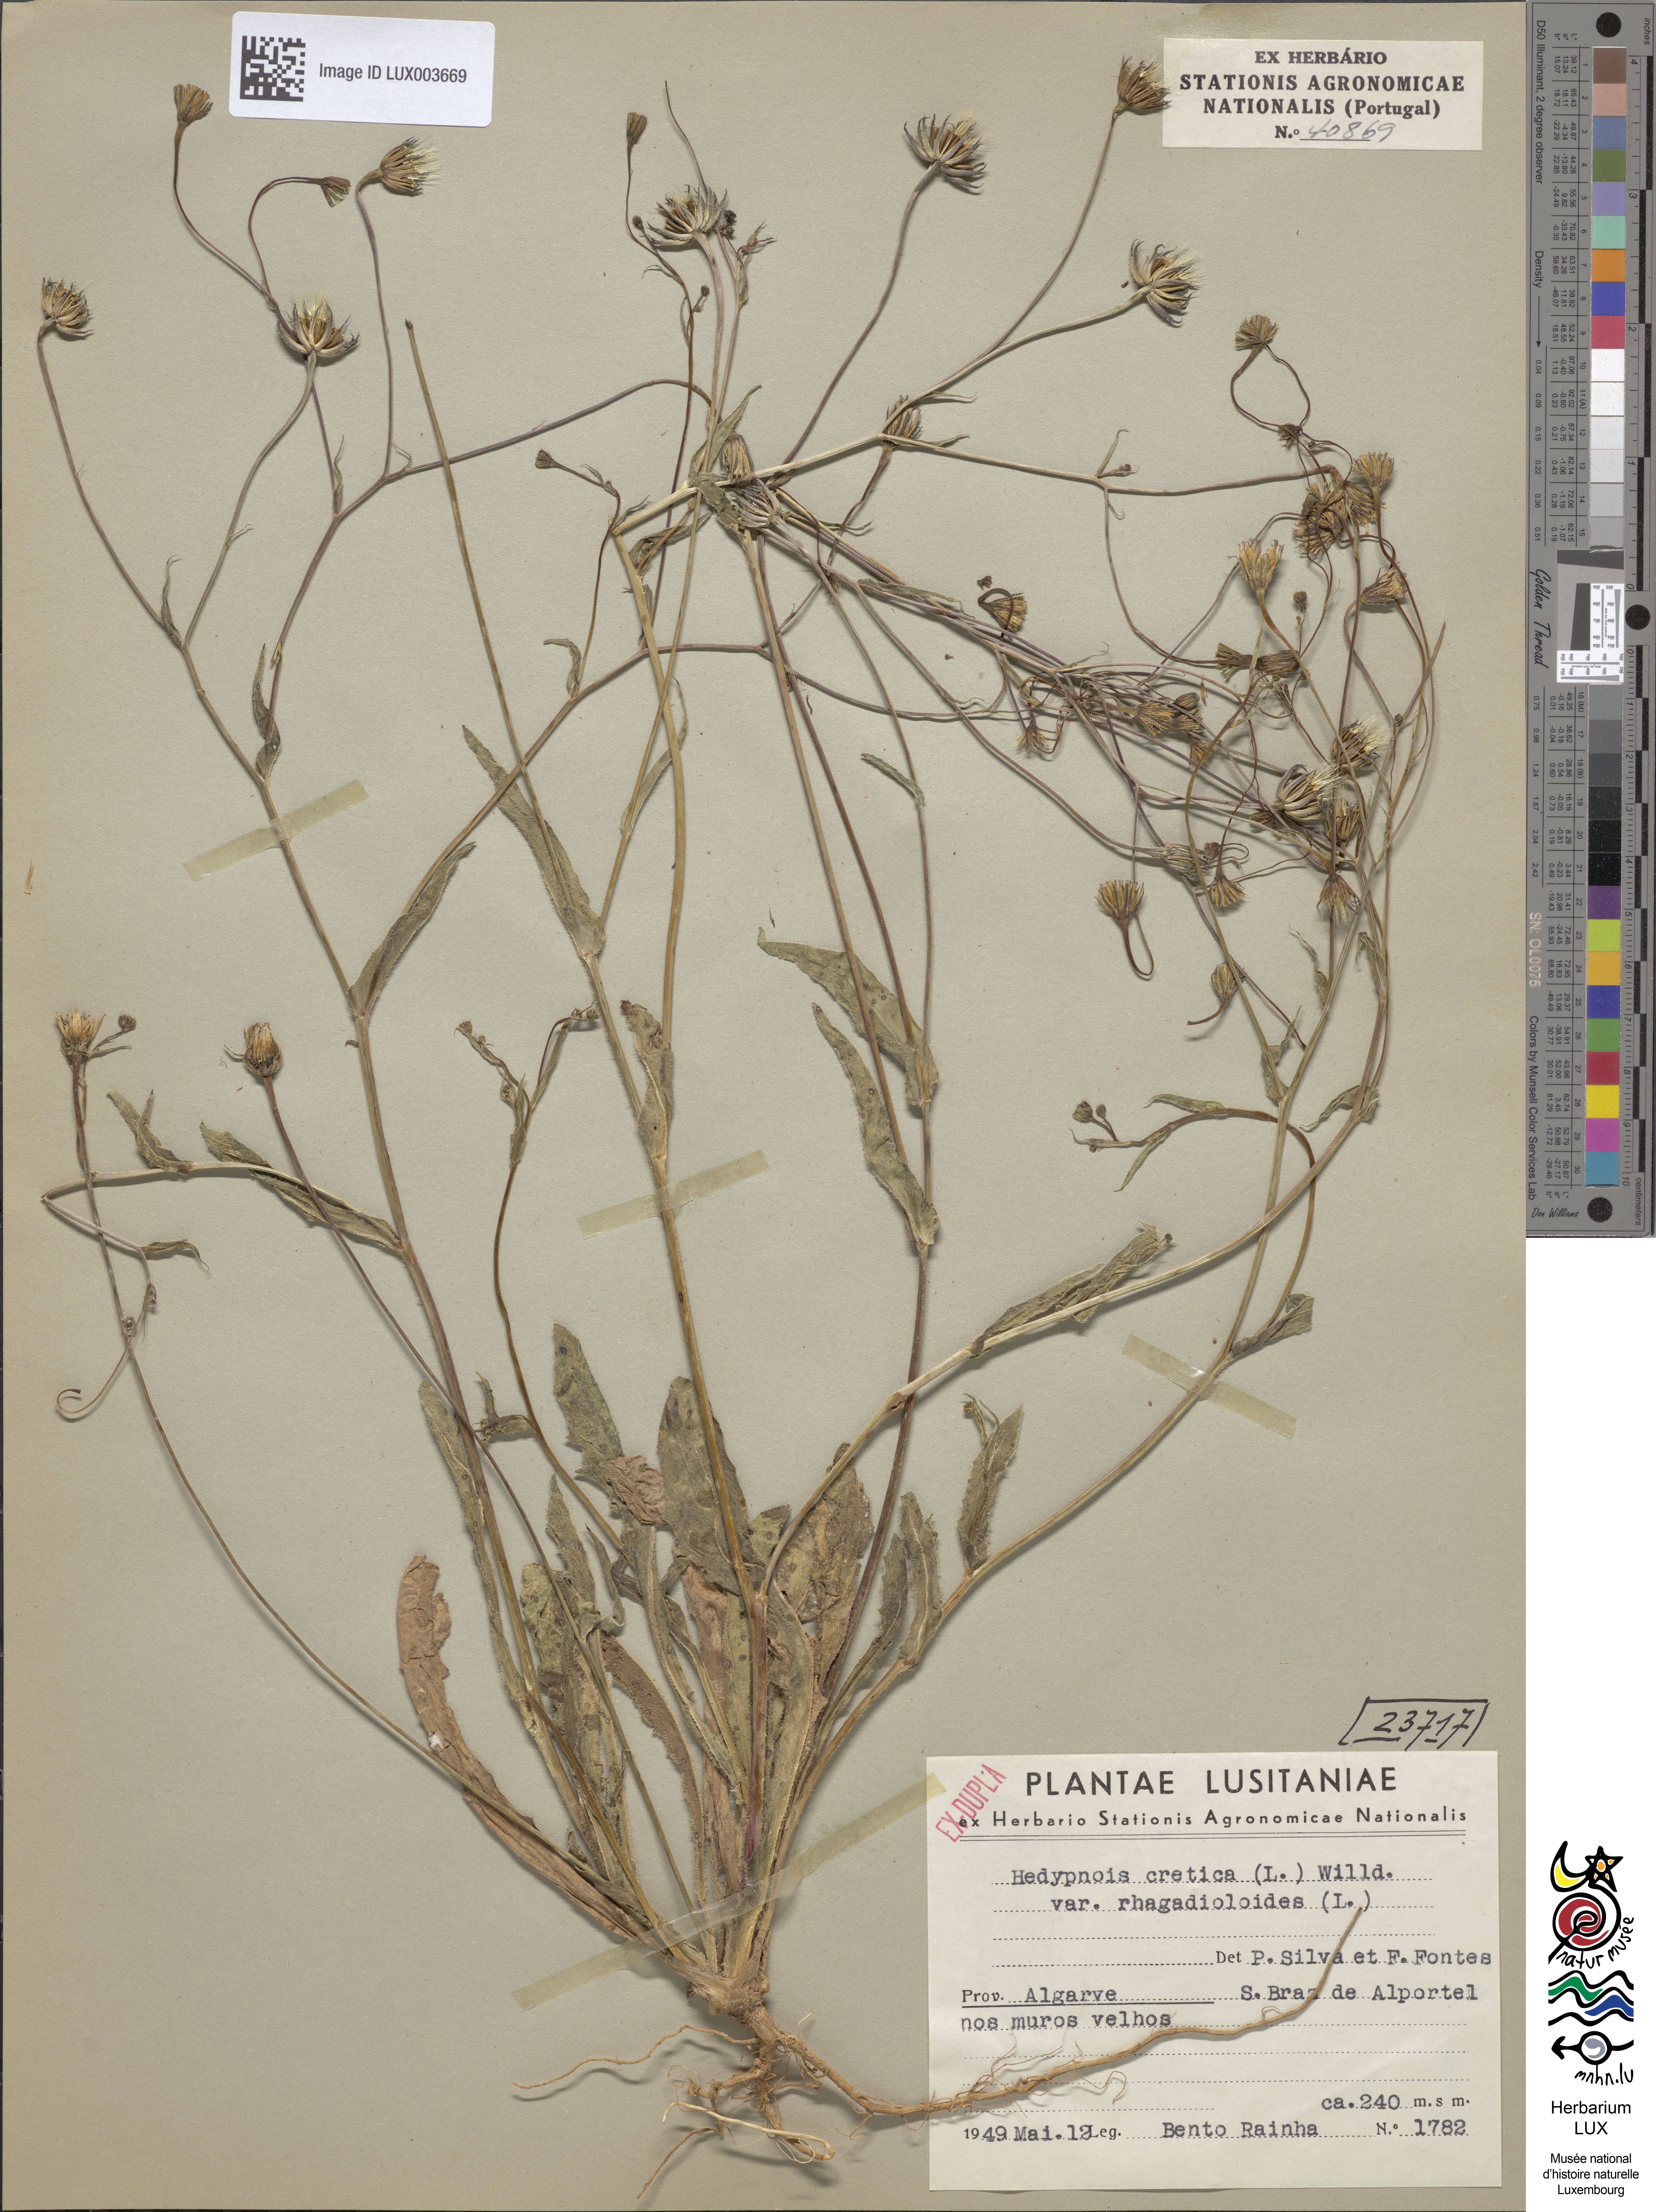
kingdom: Plantae
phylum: Tracheophyta
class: Magnoliopsida
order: Asterales
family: Asteraceae
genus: Hedypnois
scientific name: Hedypnois cretica
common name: Scaly hawkbit
